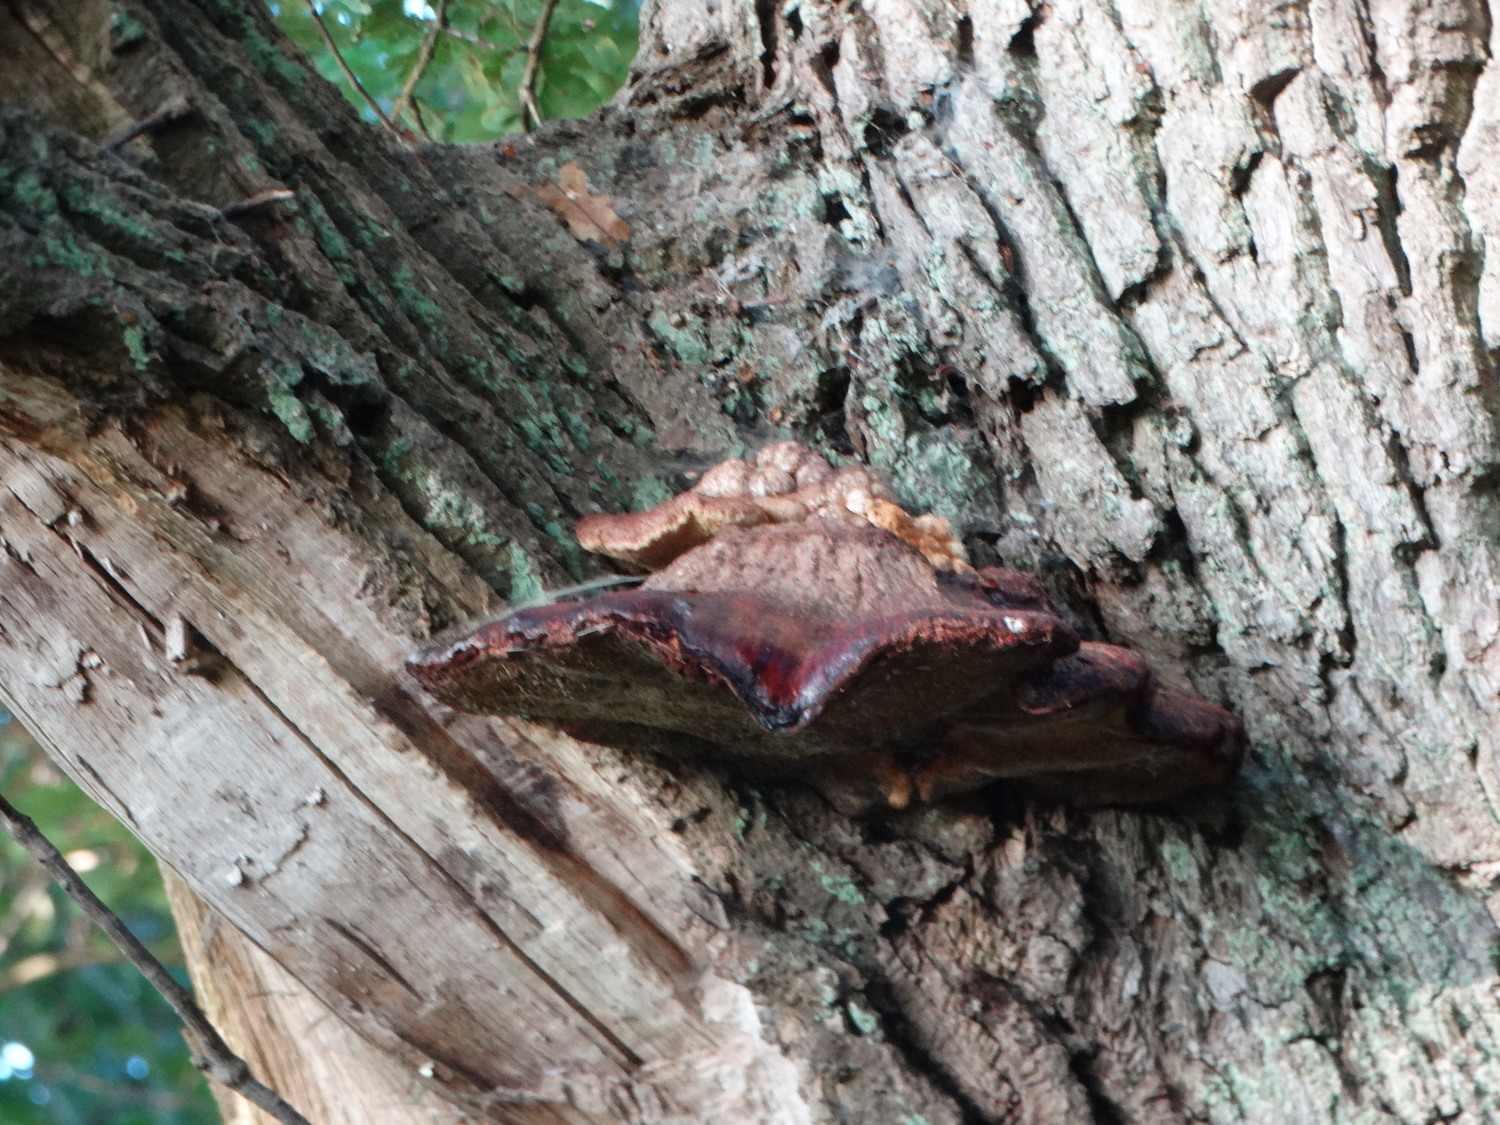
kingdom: Fungi
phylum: Basidiomycota
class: Agaricomycetes
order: Agaricales
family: Fistulinaceae
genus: Fistulina
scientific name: Fistulina hepatica
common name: oksetunge
